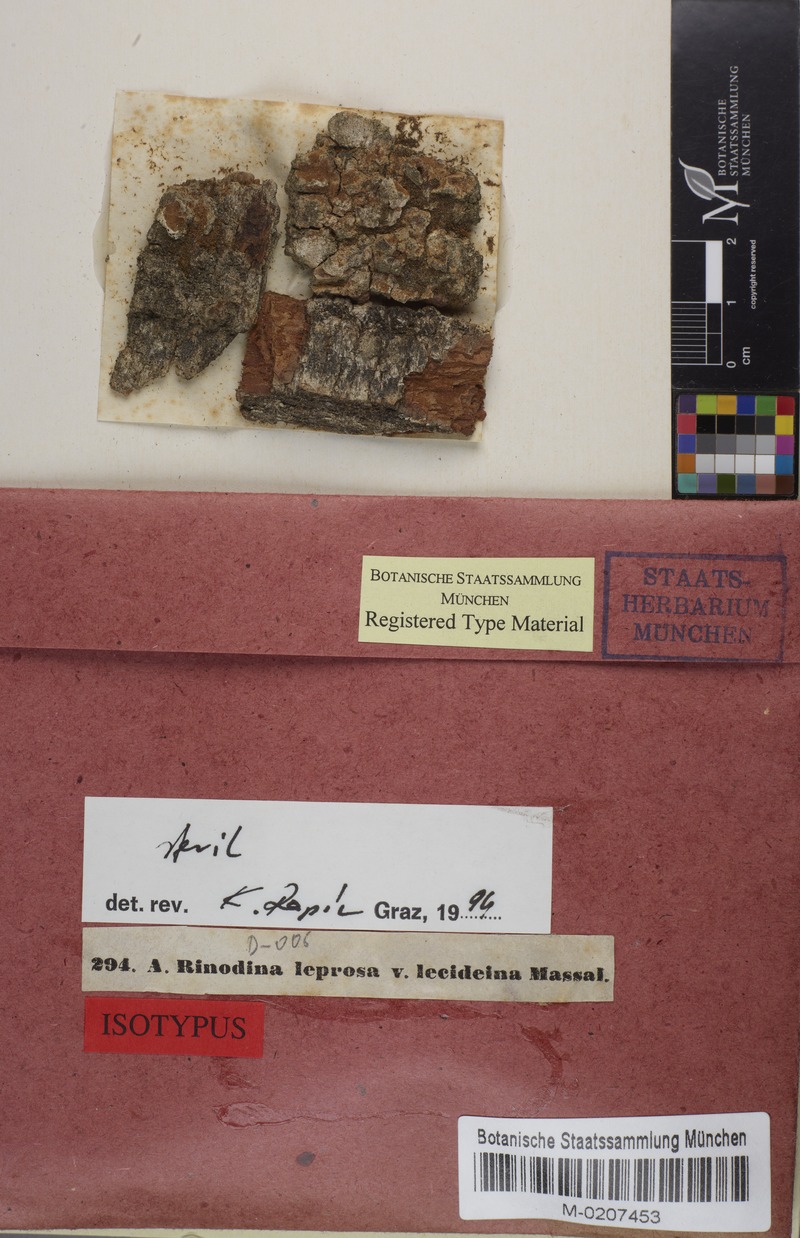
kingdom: Fungi
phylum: Ascomycota
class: Lecanoromycetes
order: Caliciales
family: Physciaceae
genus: Rinodina
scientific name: Rinodina pityrea
